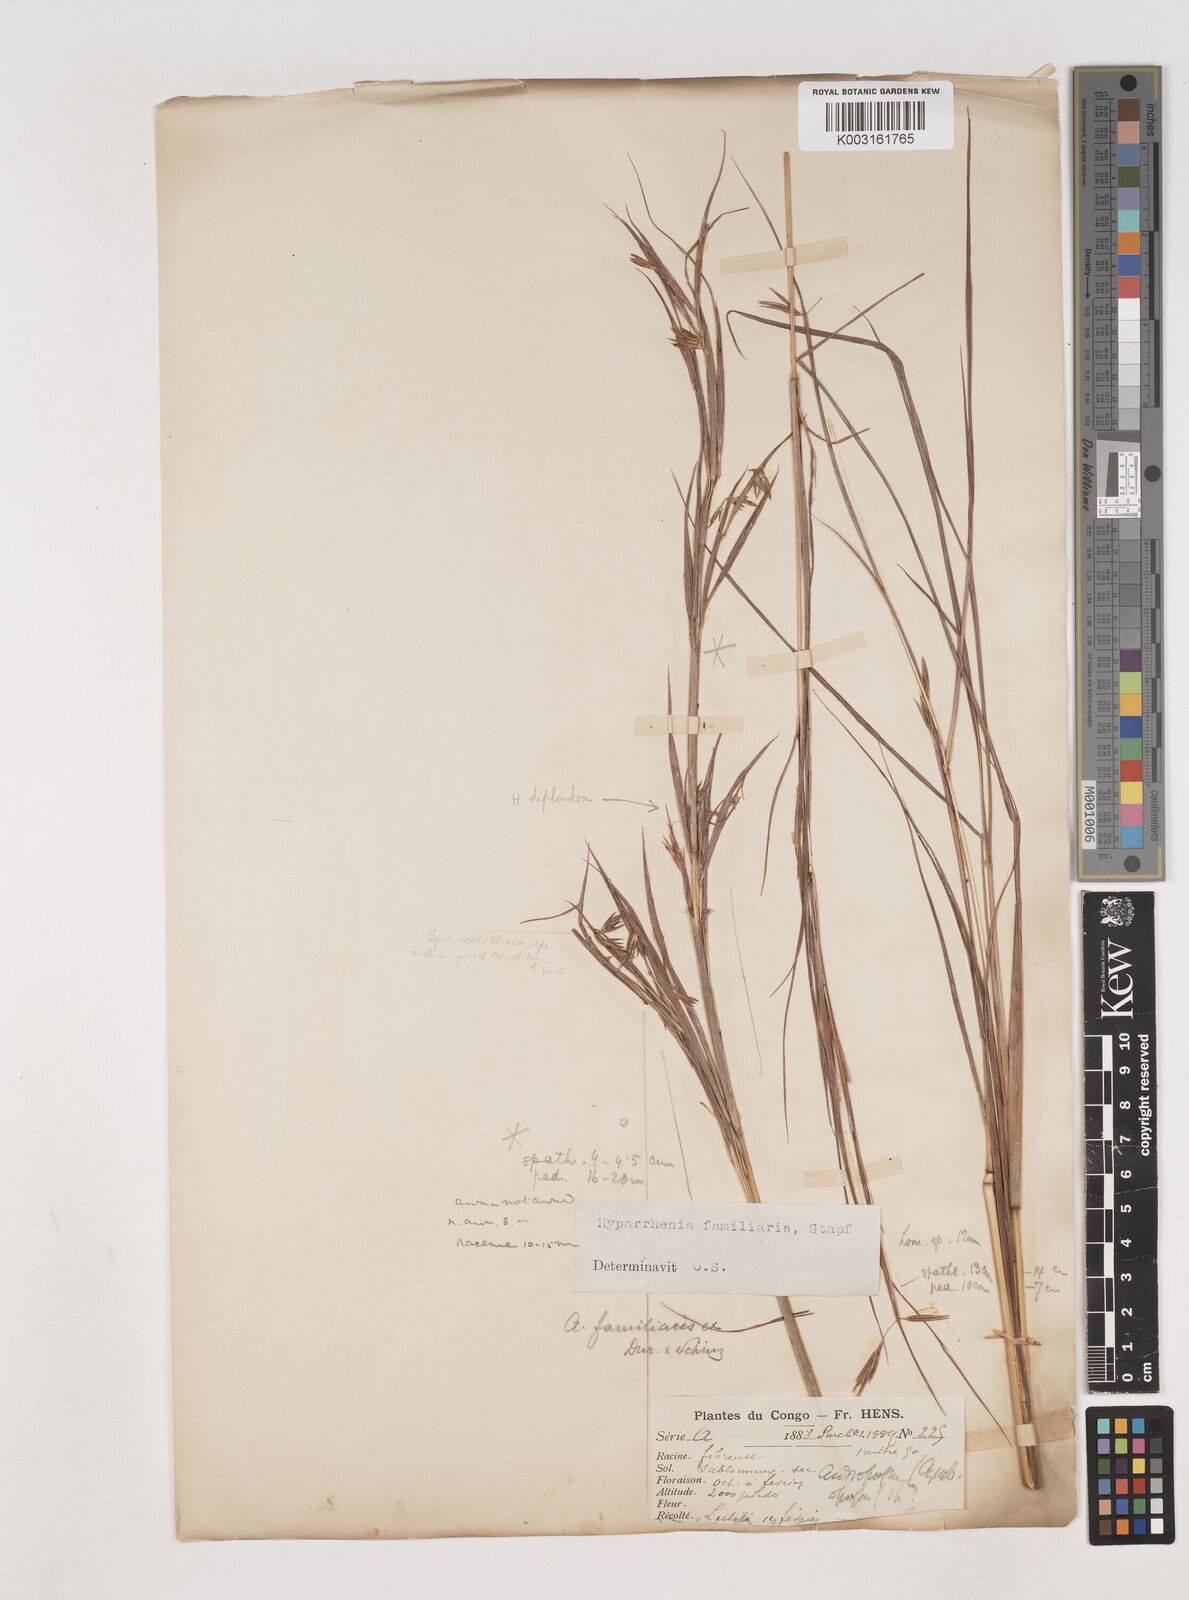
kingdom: Plantae
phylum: Tracheophyta
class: Liliopsida
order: Poales
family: Poaceae
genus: Hyparrhenia
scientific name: Hyparrhenia familiaris
